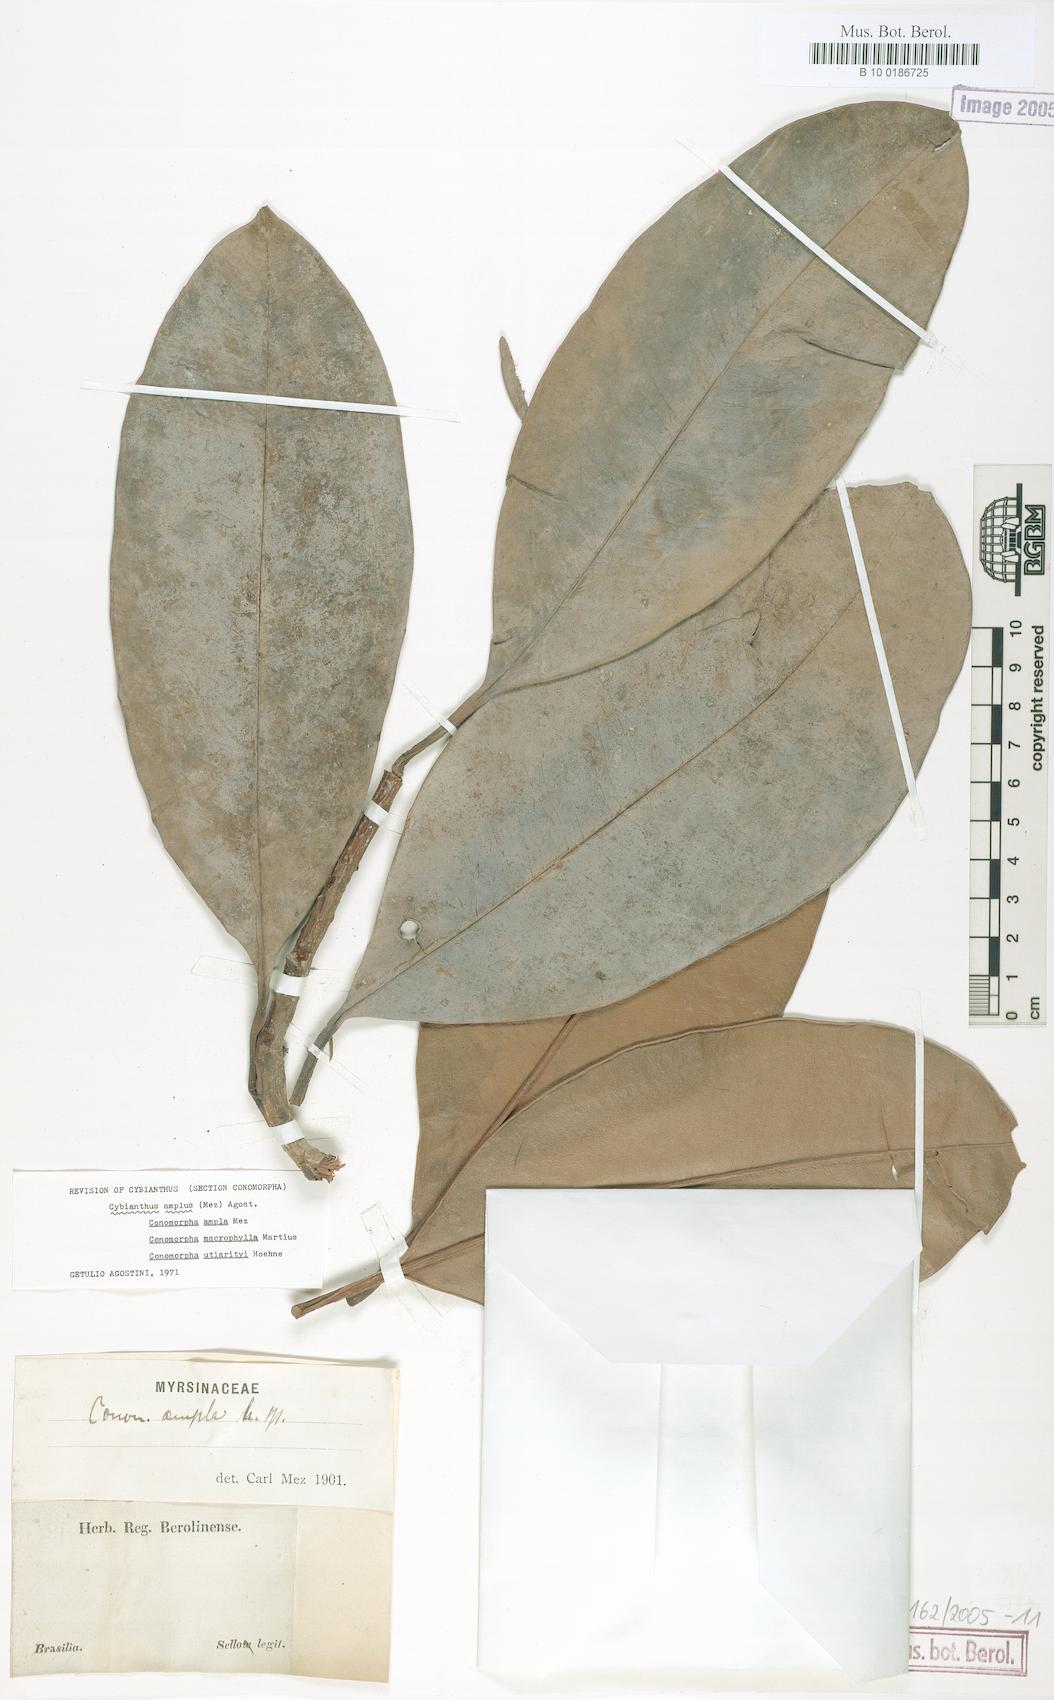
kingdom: Plantae
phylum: Tracheophyta
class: Magnoliopsida
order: Ericales
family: Primulaceae
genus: Cybianthus
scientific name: Cybianthus amplus
